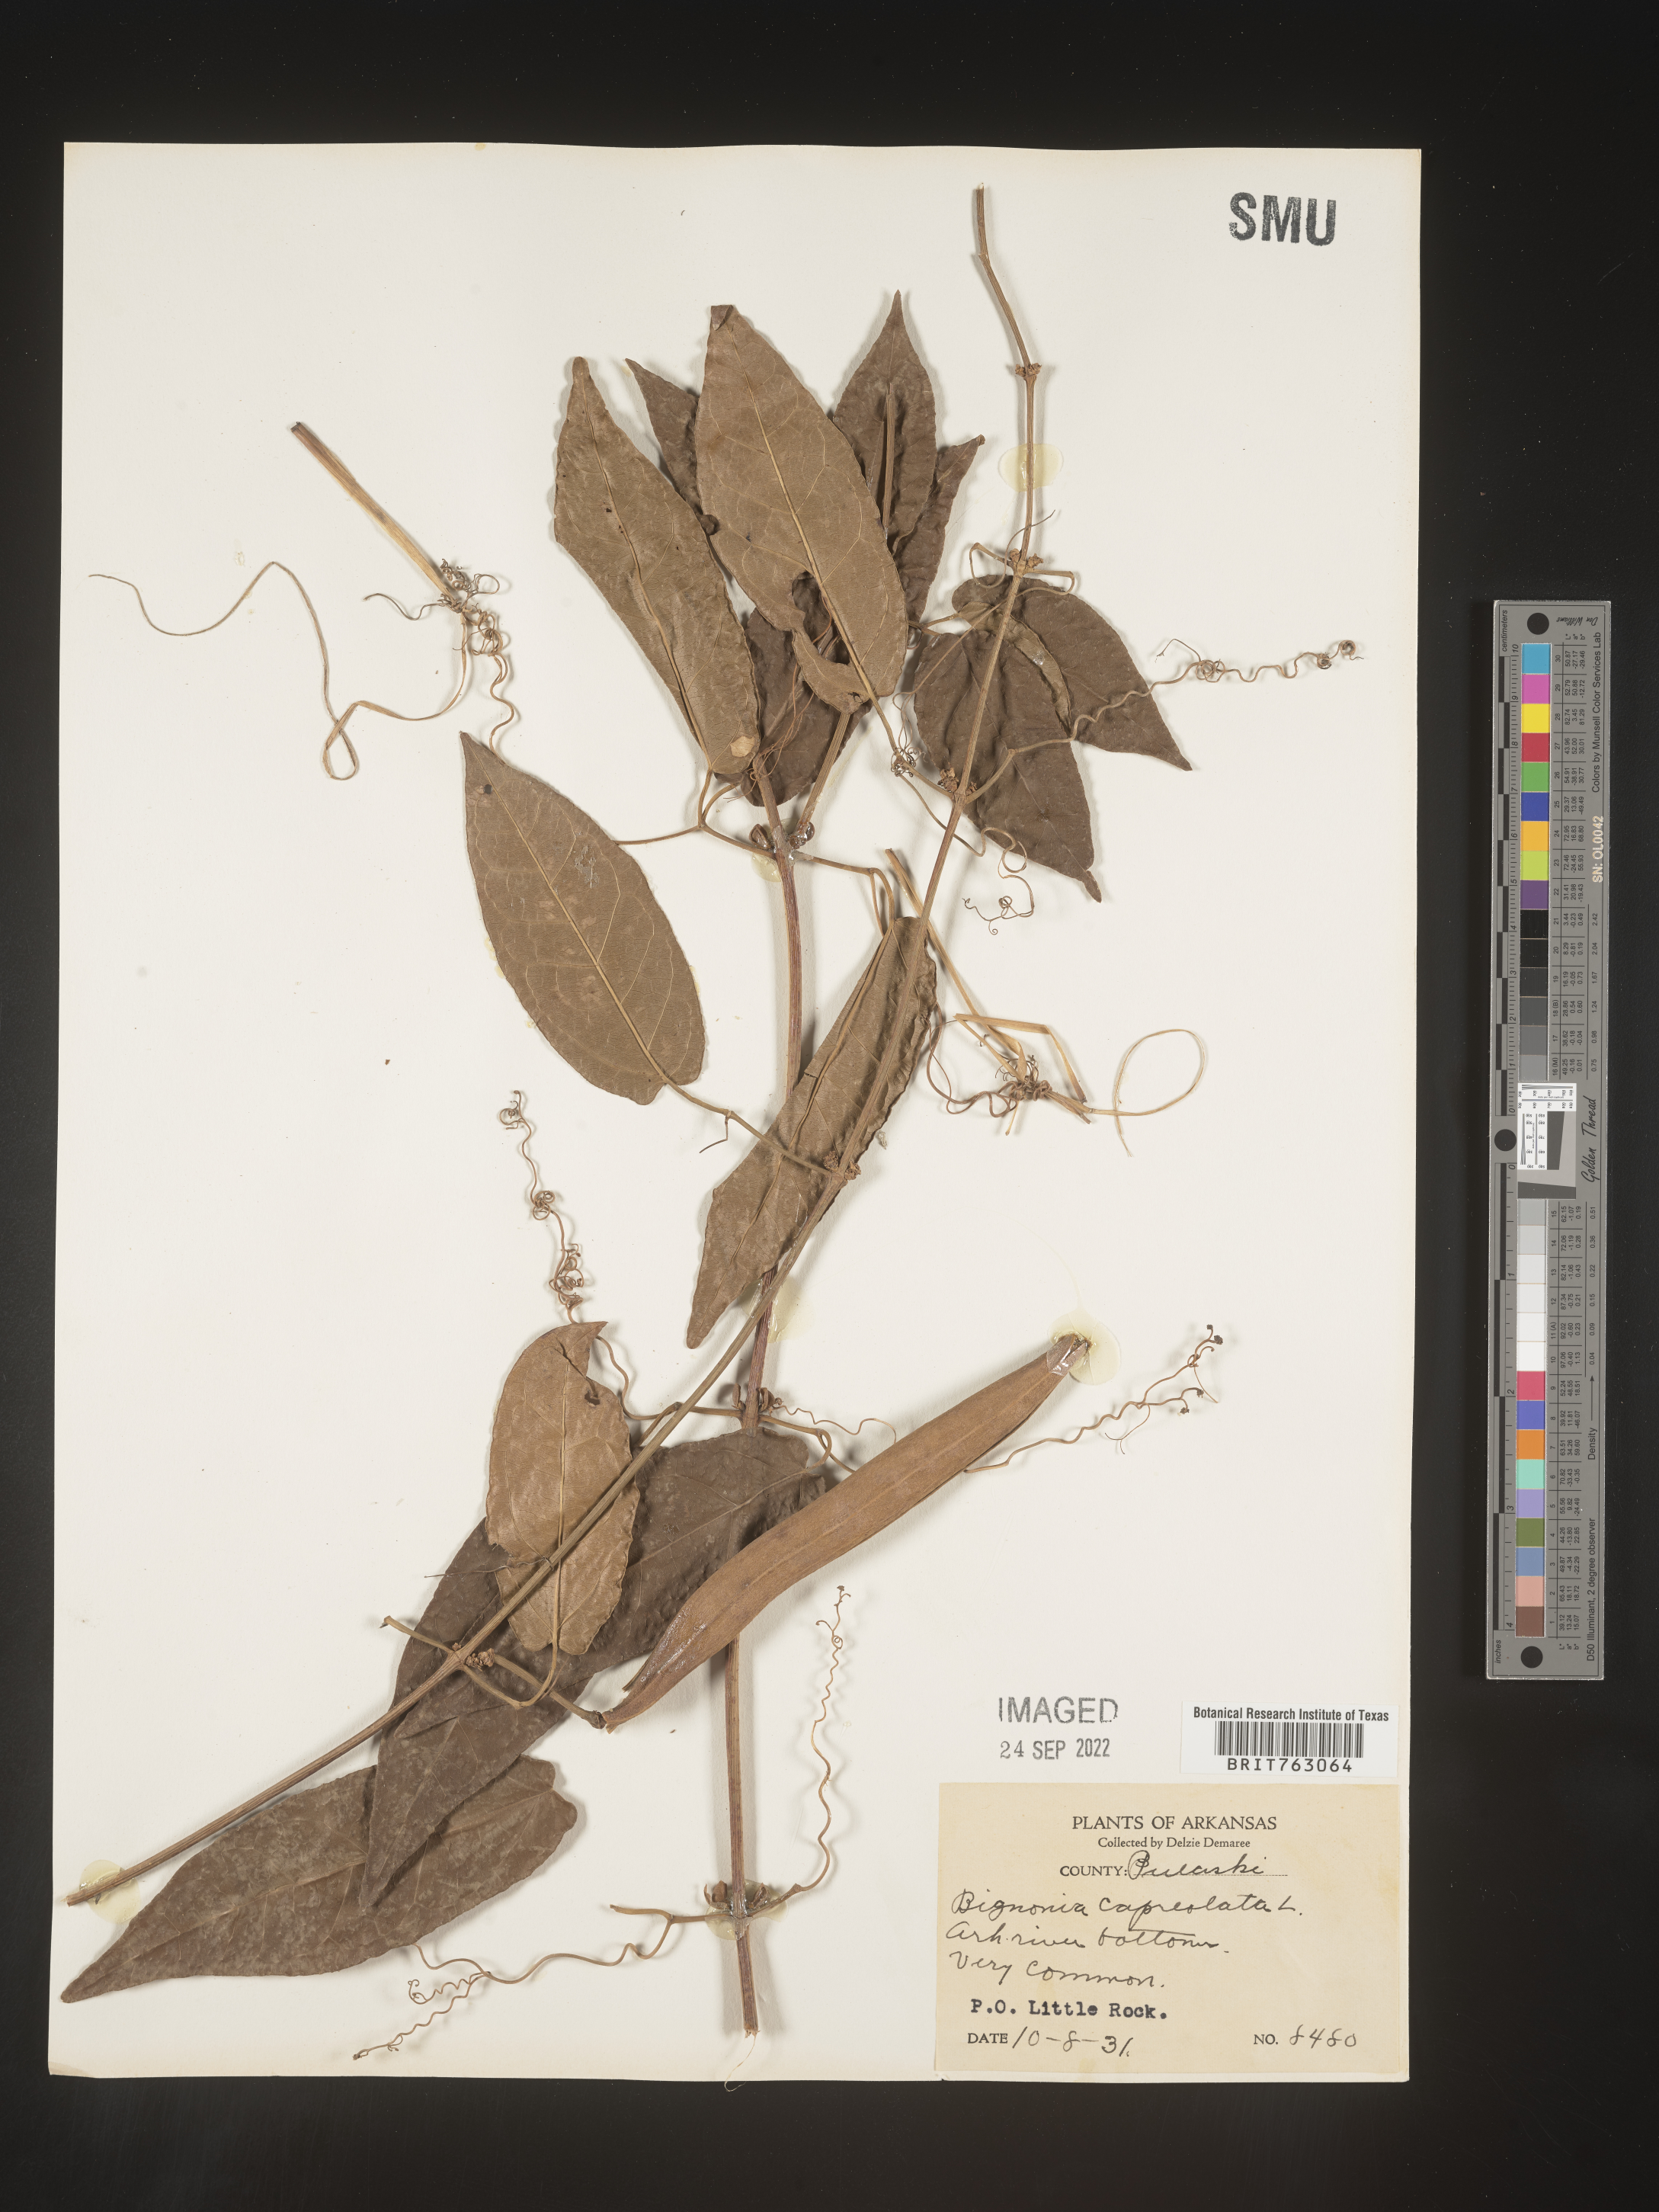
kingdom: Plantae
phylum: Tracheophyta
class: Magnoliopsida
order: Lamiales
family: Bignoniaceae
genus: Bignonia
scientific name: Bignonia capreolata
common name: Crossvine
